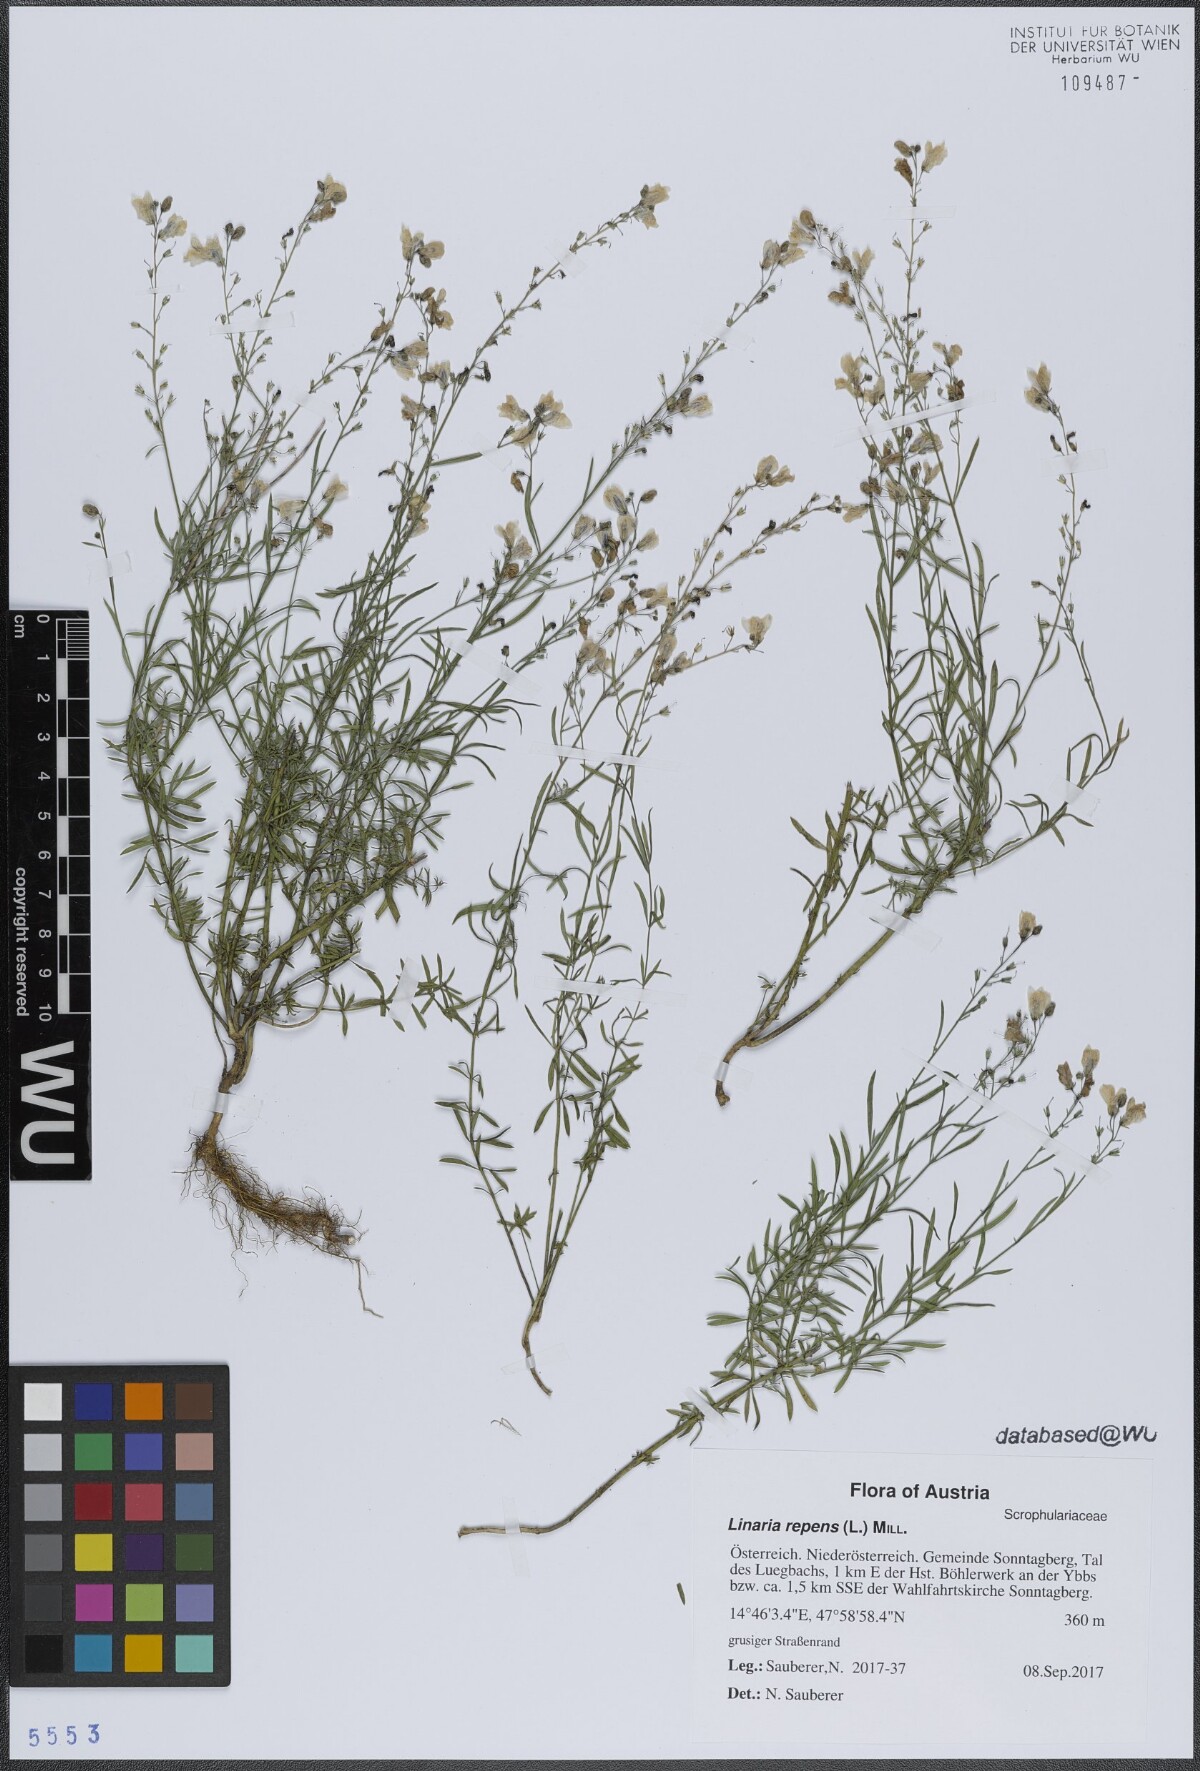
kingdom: Plantae
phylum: Tracheophyta
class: Magnoliopsida
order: Lamiales
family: Plantaginaceae
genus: Linaria
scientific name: Linaria repens
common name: Pale toadflax
